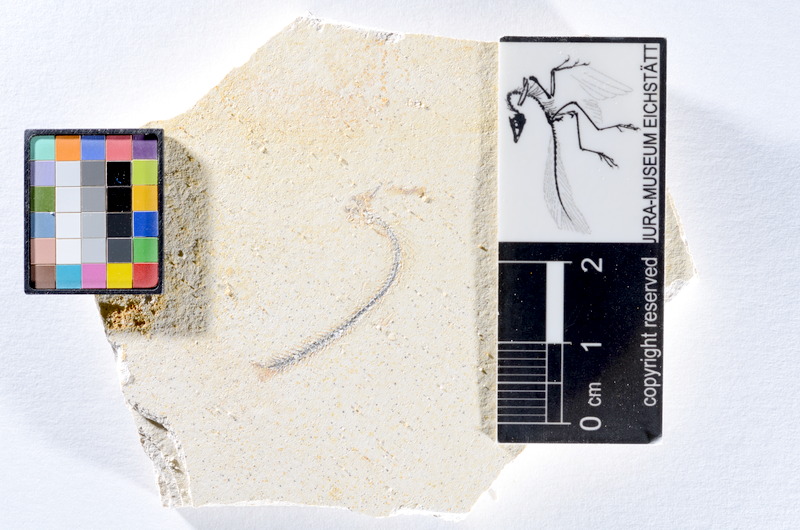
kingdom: Animalia
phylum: Chordata
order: Salmoniformes
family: Orthogonikleithridae
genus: Orthogonikleithrus
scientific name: Orthogonikleithrus hoelli
